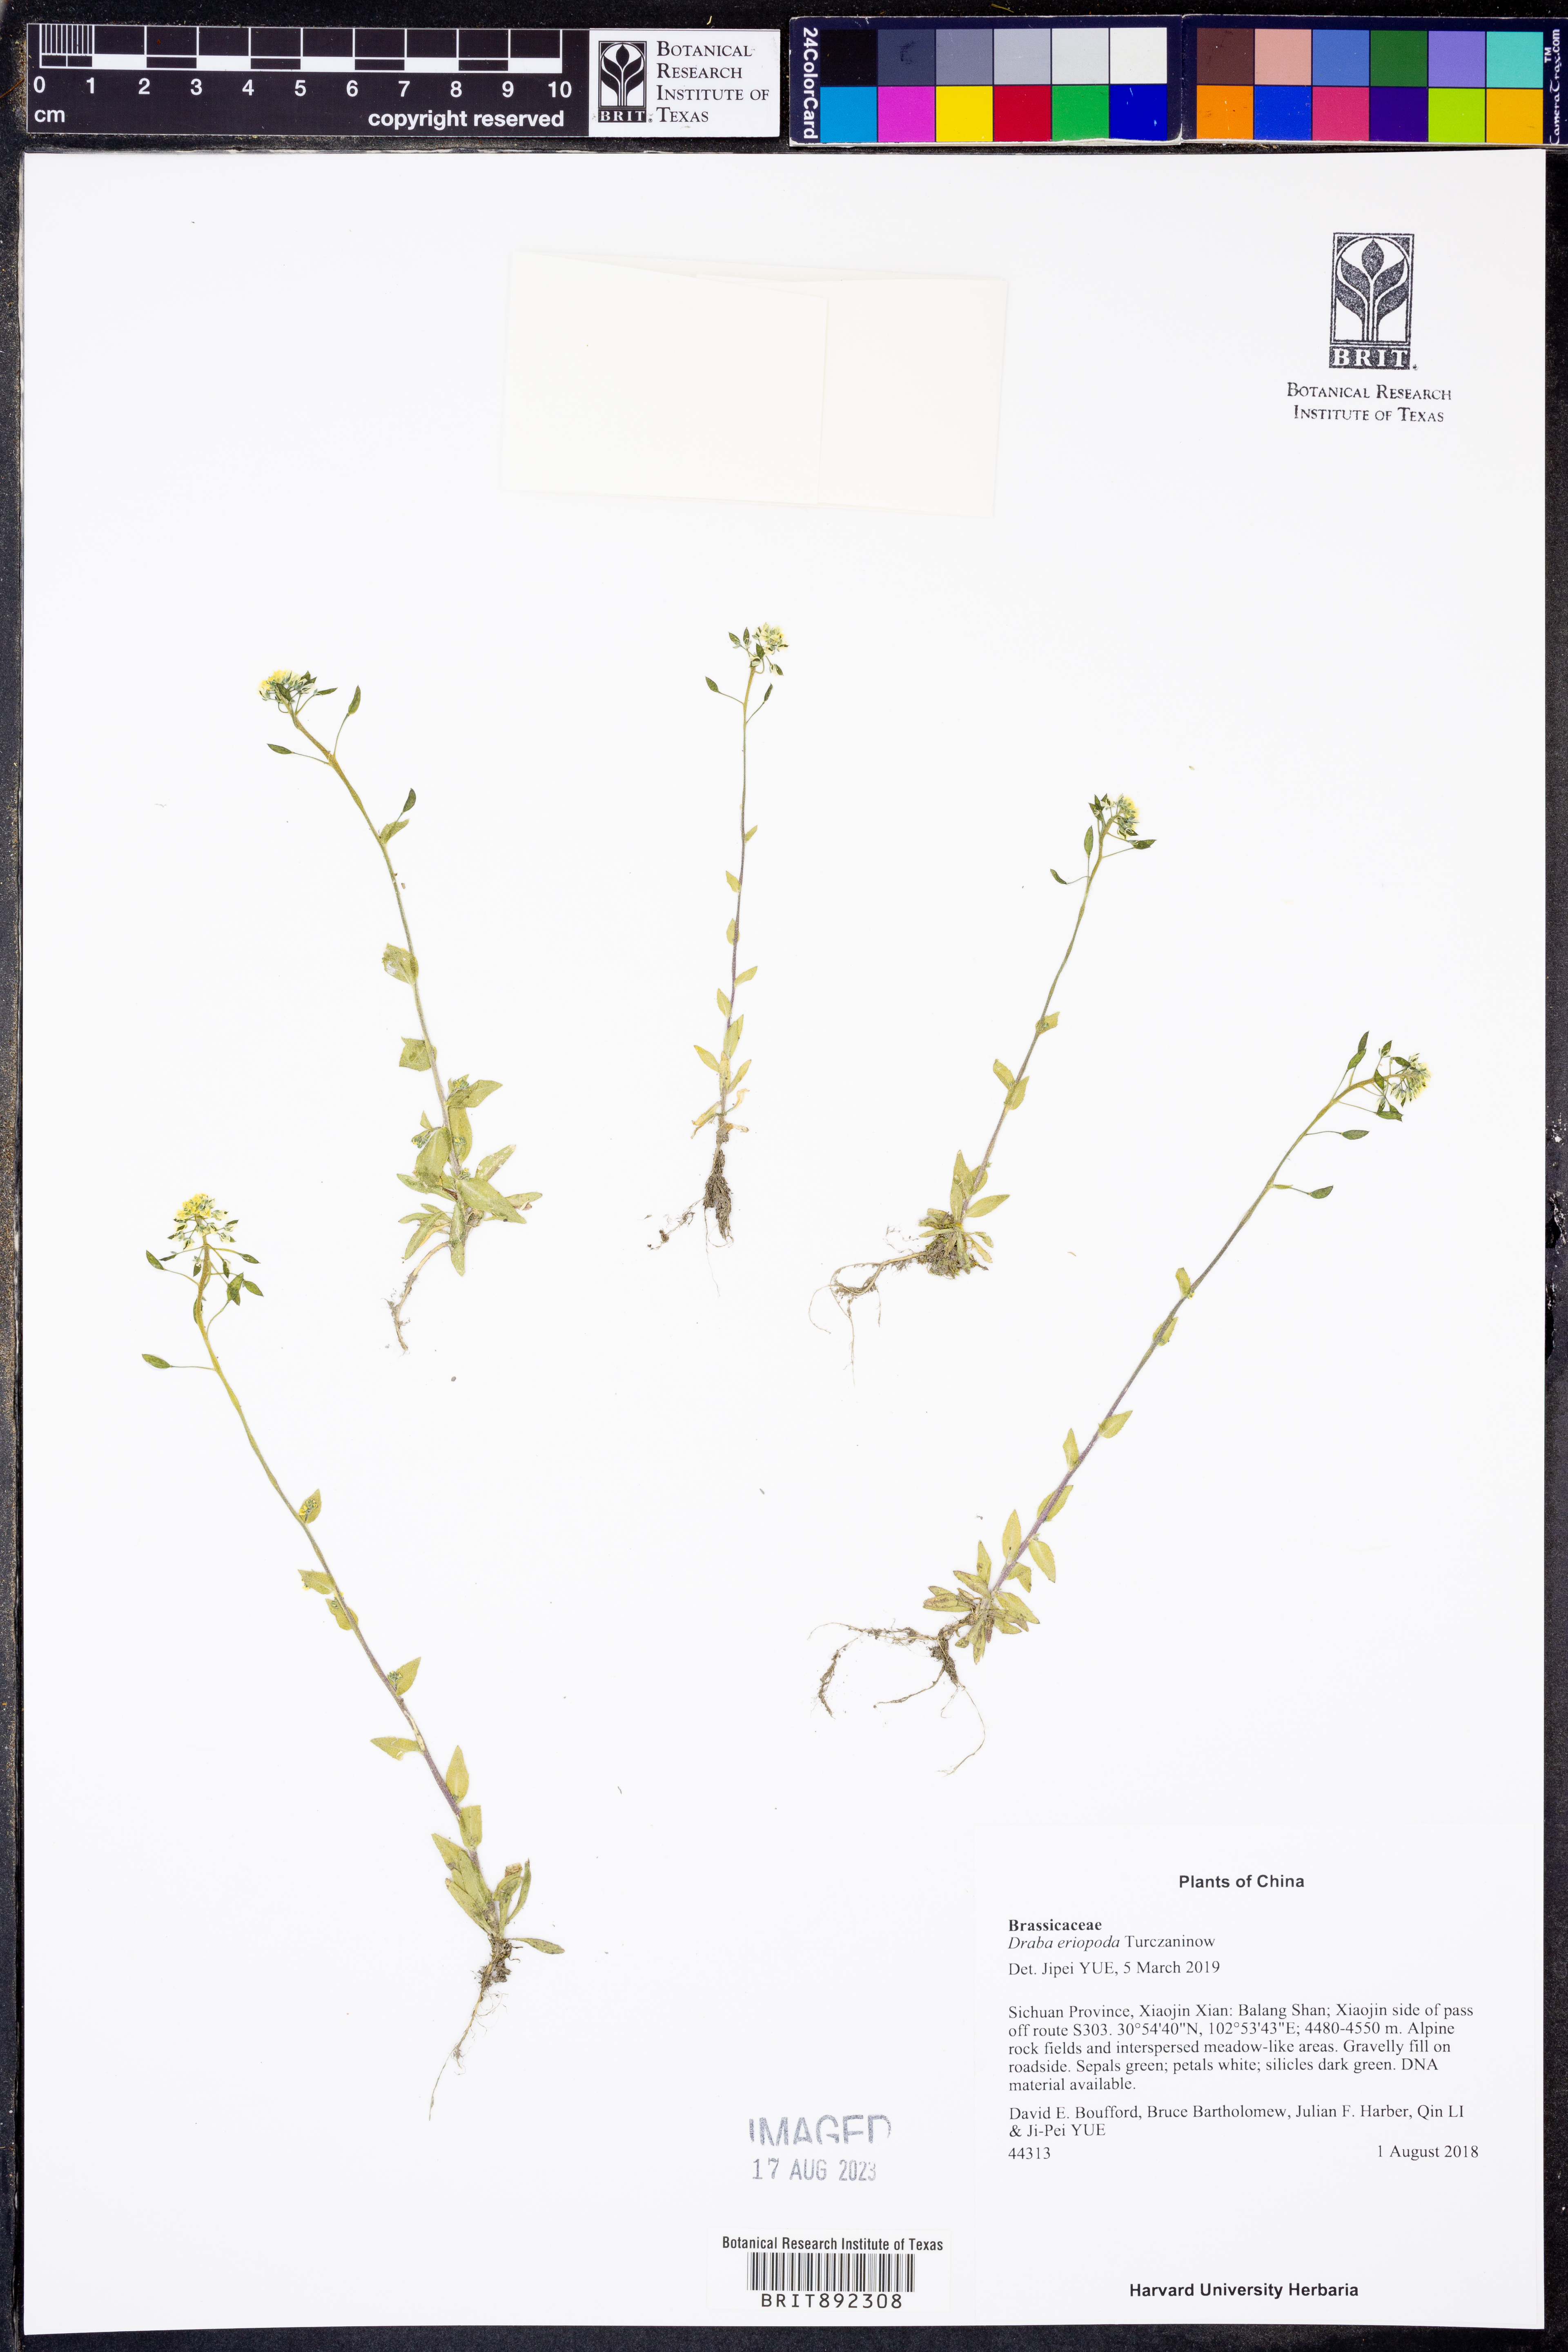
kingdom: Plantae
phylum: Tracheophyta
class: Magnoliopsida
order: Brassicales
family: Brassicaceae
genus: Draba
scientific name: Draba eriopoda
